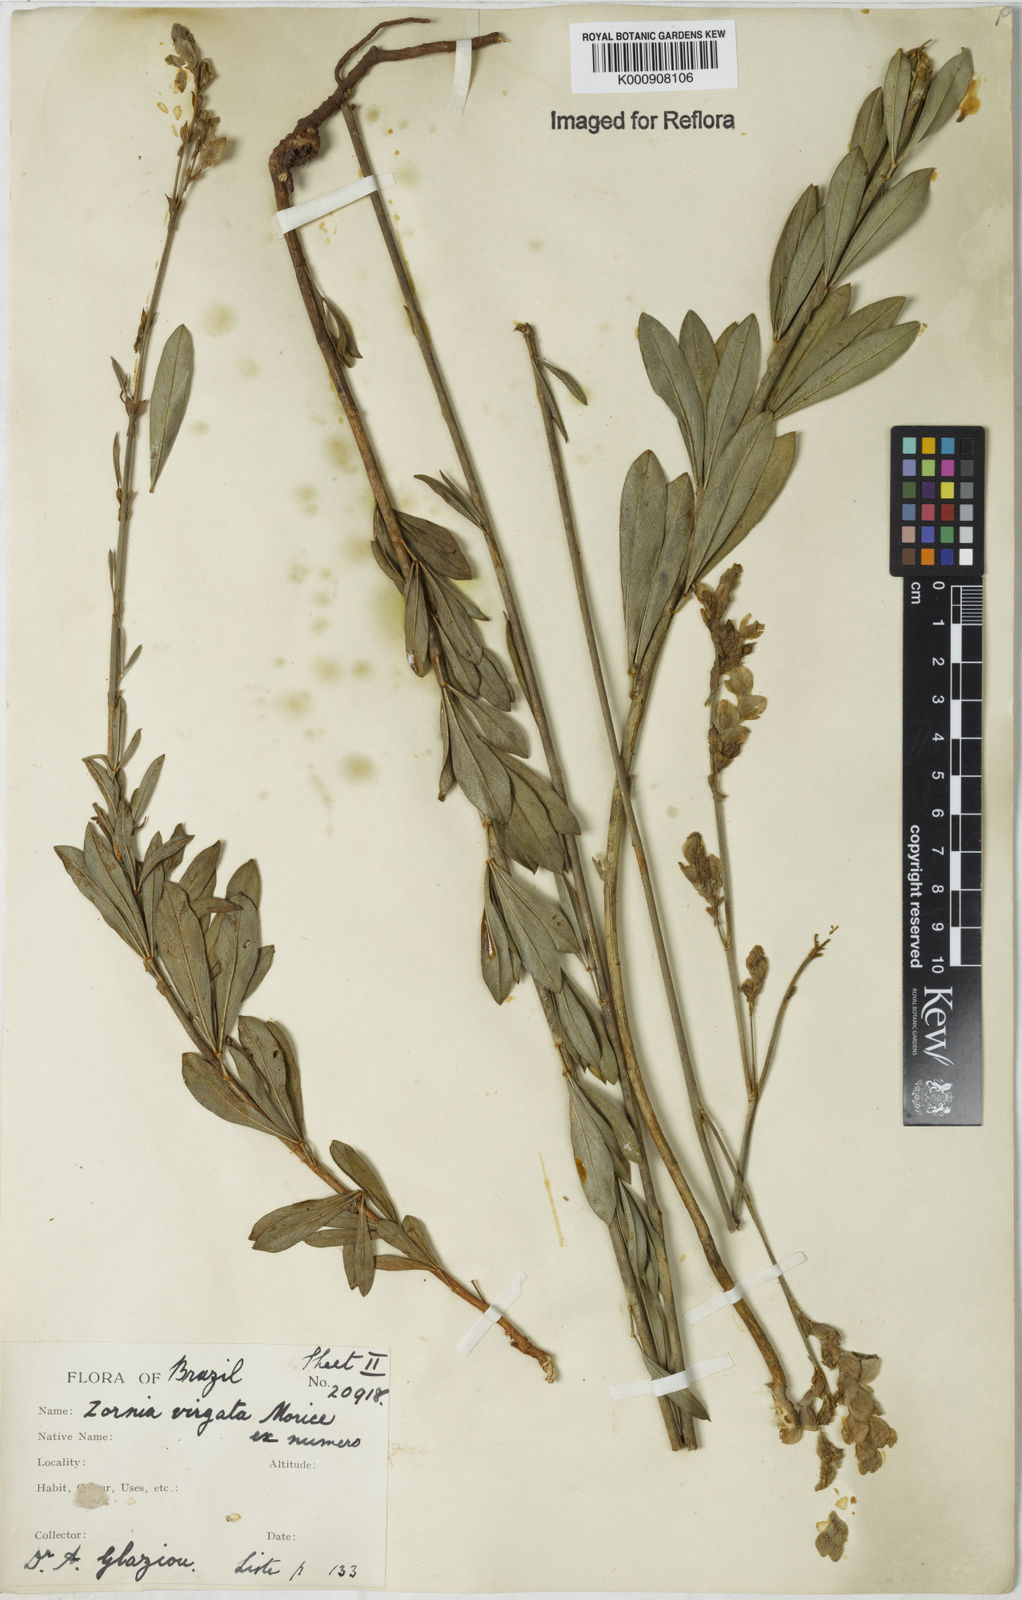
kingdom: Plantae
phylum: Tracheophyta
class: Magnoliopsida
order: Fabales
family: Fabaceae
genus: Zornia
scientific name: Zornia virgata
